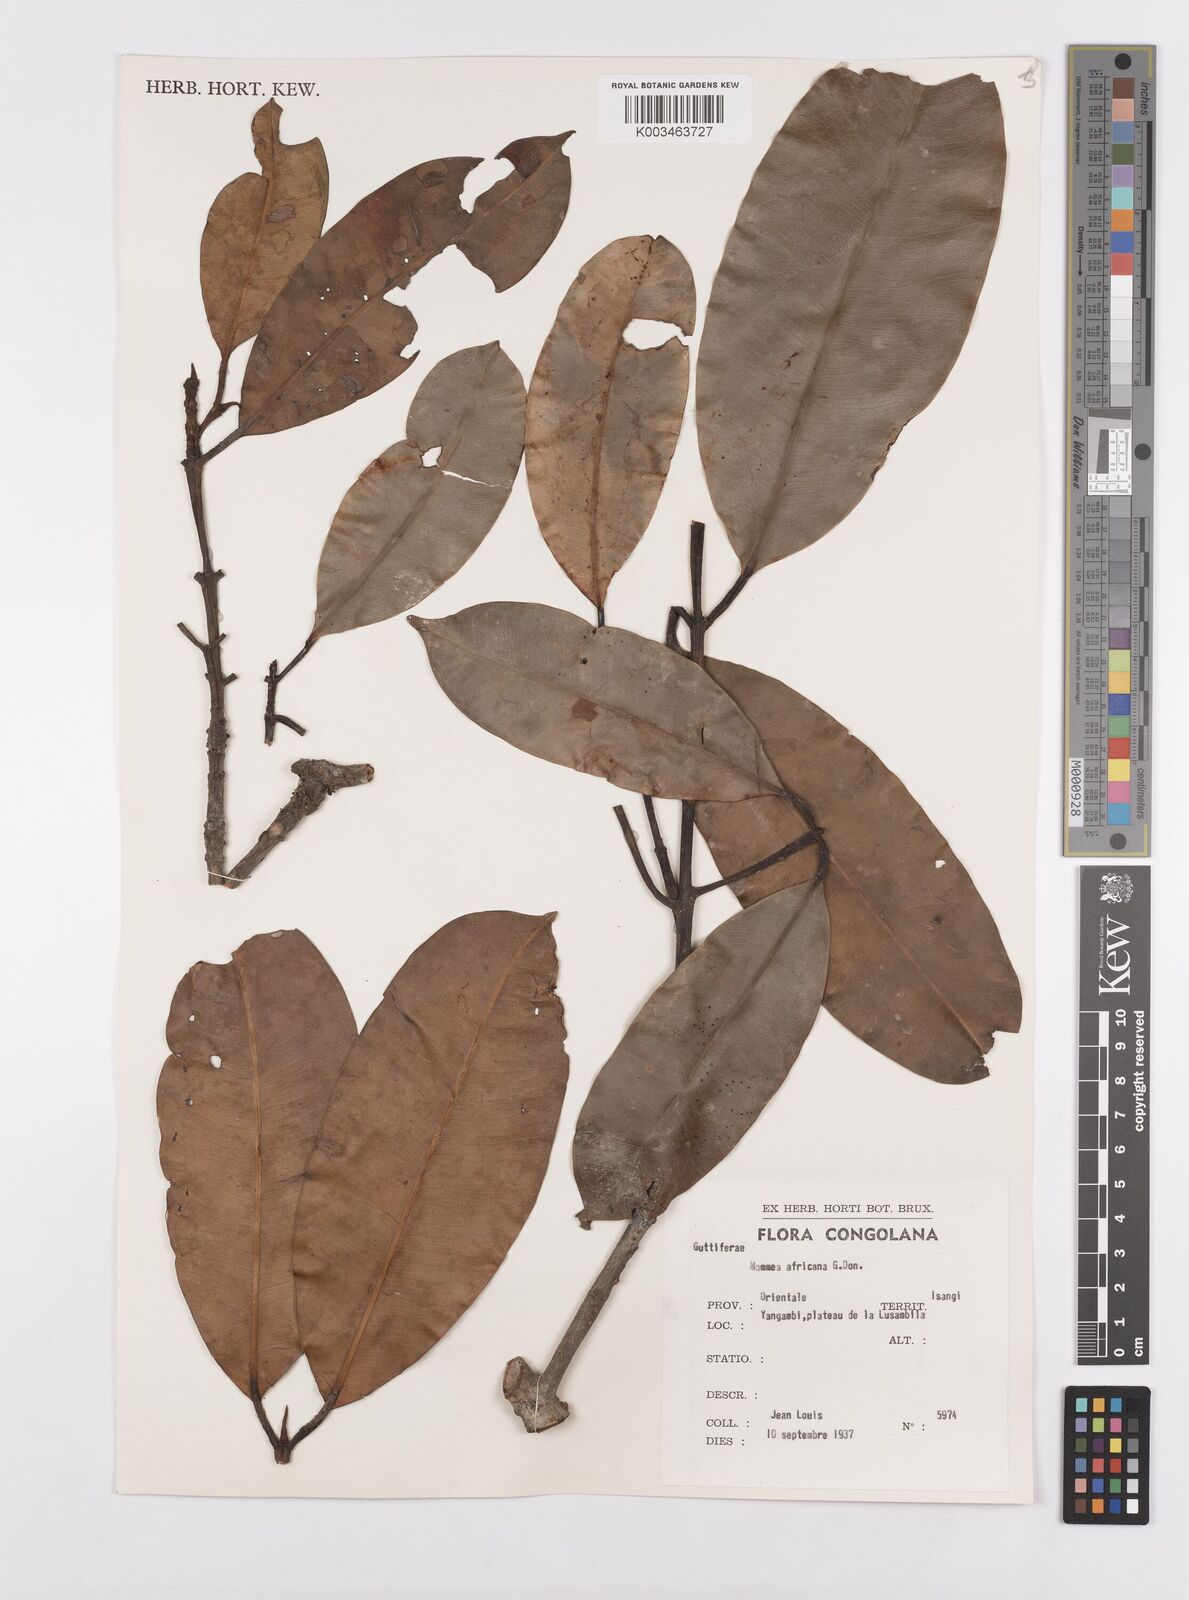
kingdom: Plantae
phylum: Tracheophyta
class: Magnoliopsida
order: Malpighiales
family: Calophyllaceae
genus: Mammea
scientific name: Mammea africana
